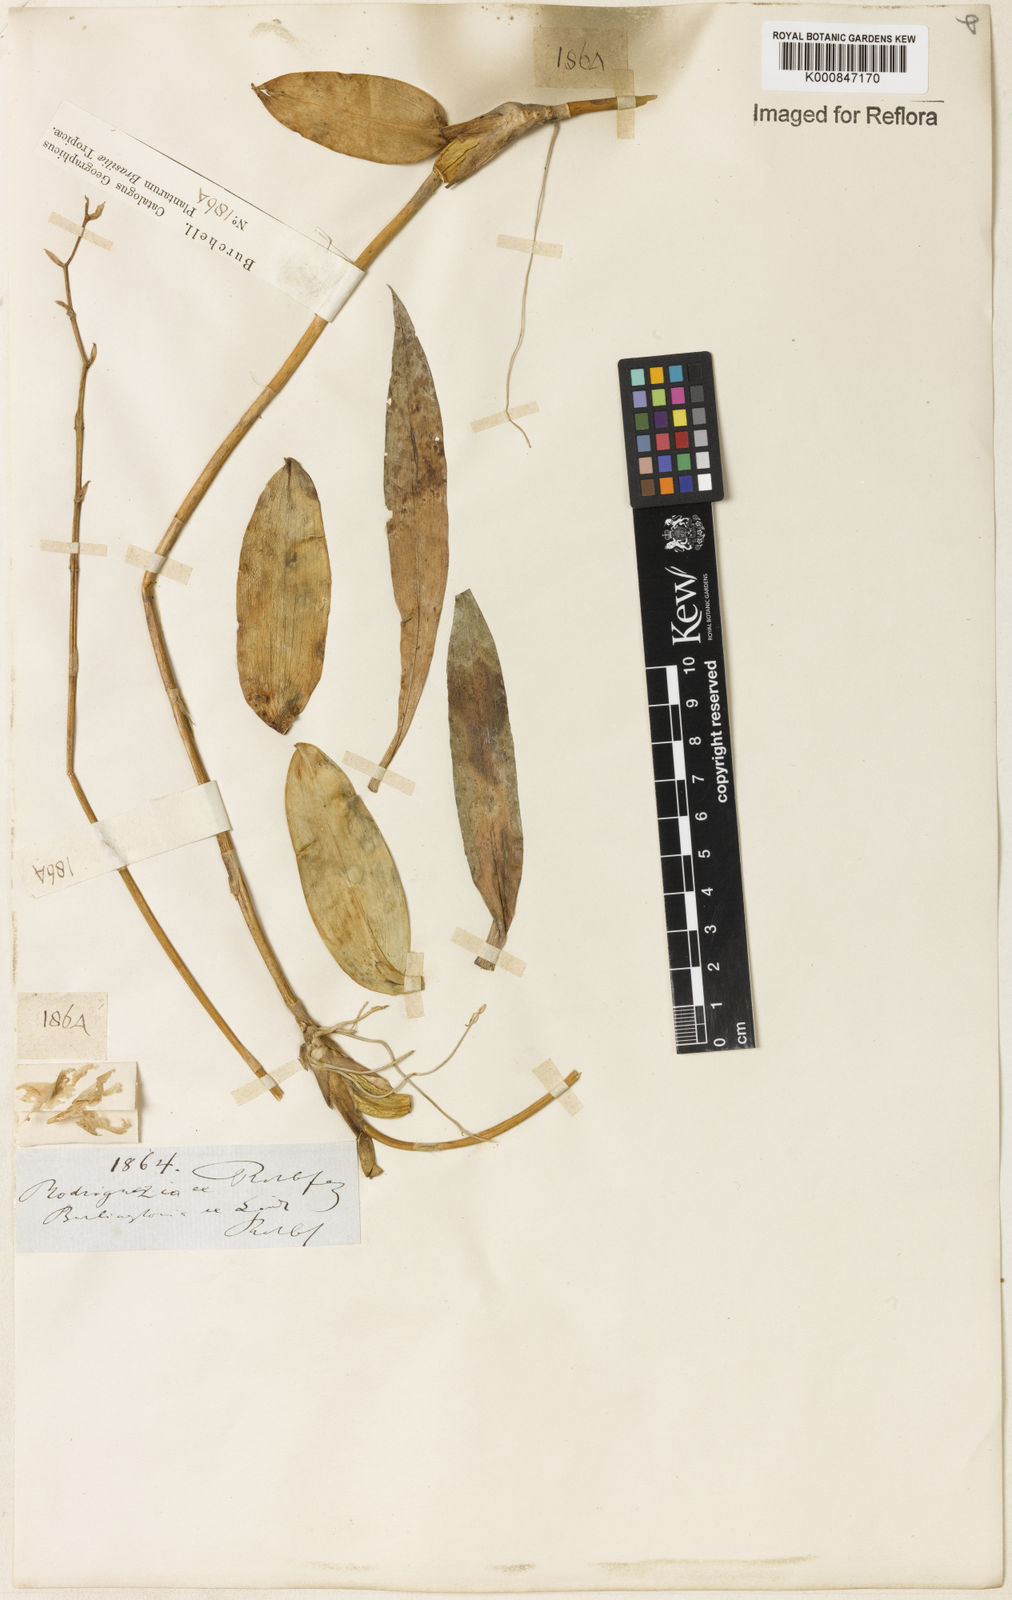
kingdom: Plantae
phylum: Tracheophyta
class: Liliopsida
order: Asparagales
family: Orchidaceae
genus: Rodriguezia
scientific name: Rodriguezia obtusifolia
